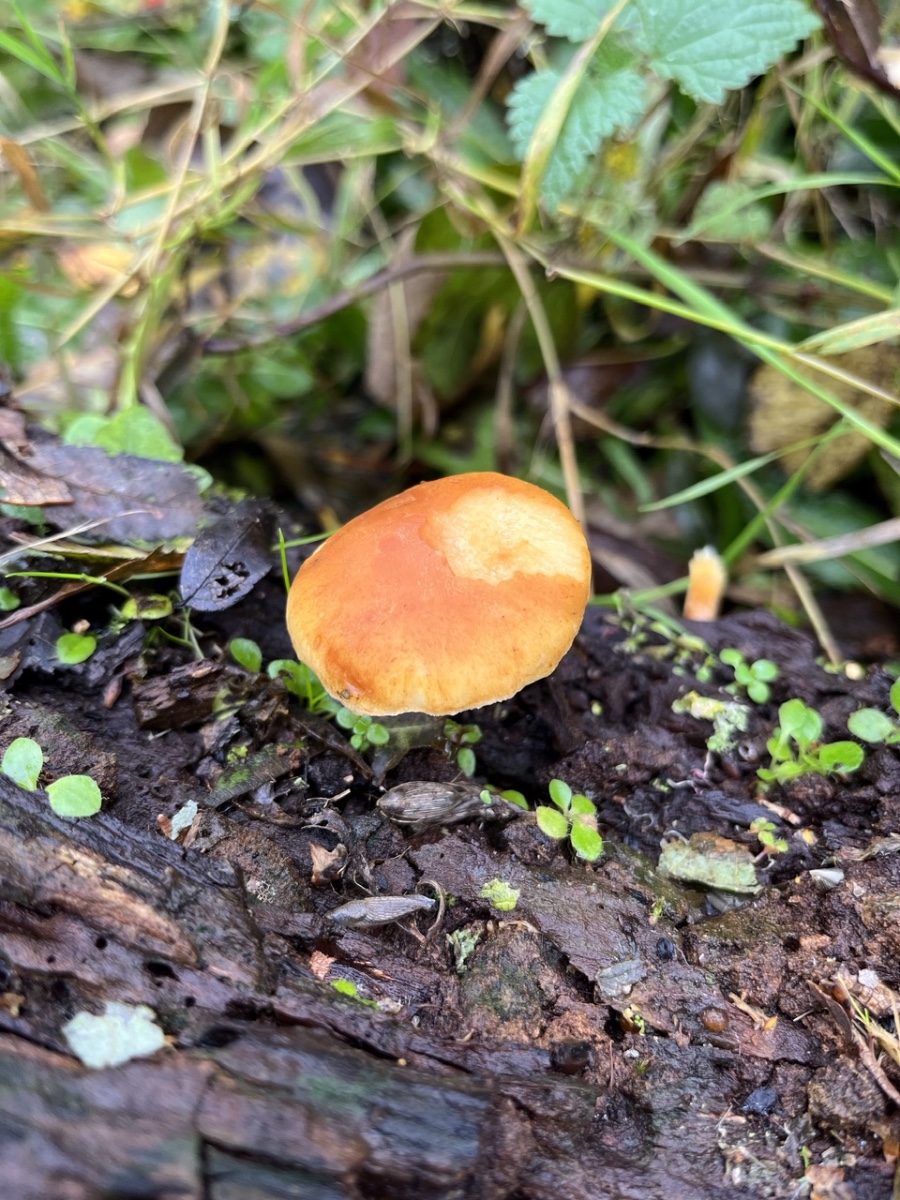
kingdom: Fungi
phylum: Basidiomycota
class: Agaricomycetes
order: Agaricales
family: Hymenogastraceae
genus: Gymnopilus
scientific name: Gymnopilus penetrans
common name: plettet flammehat
